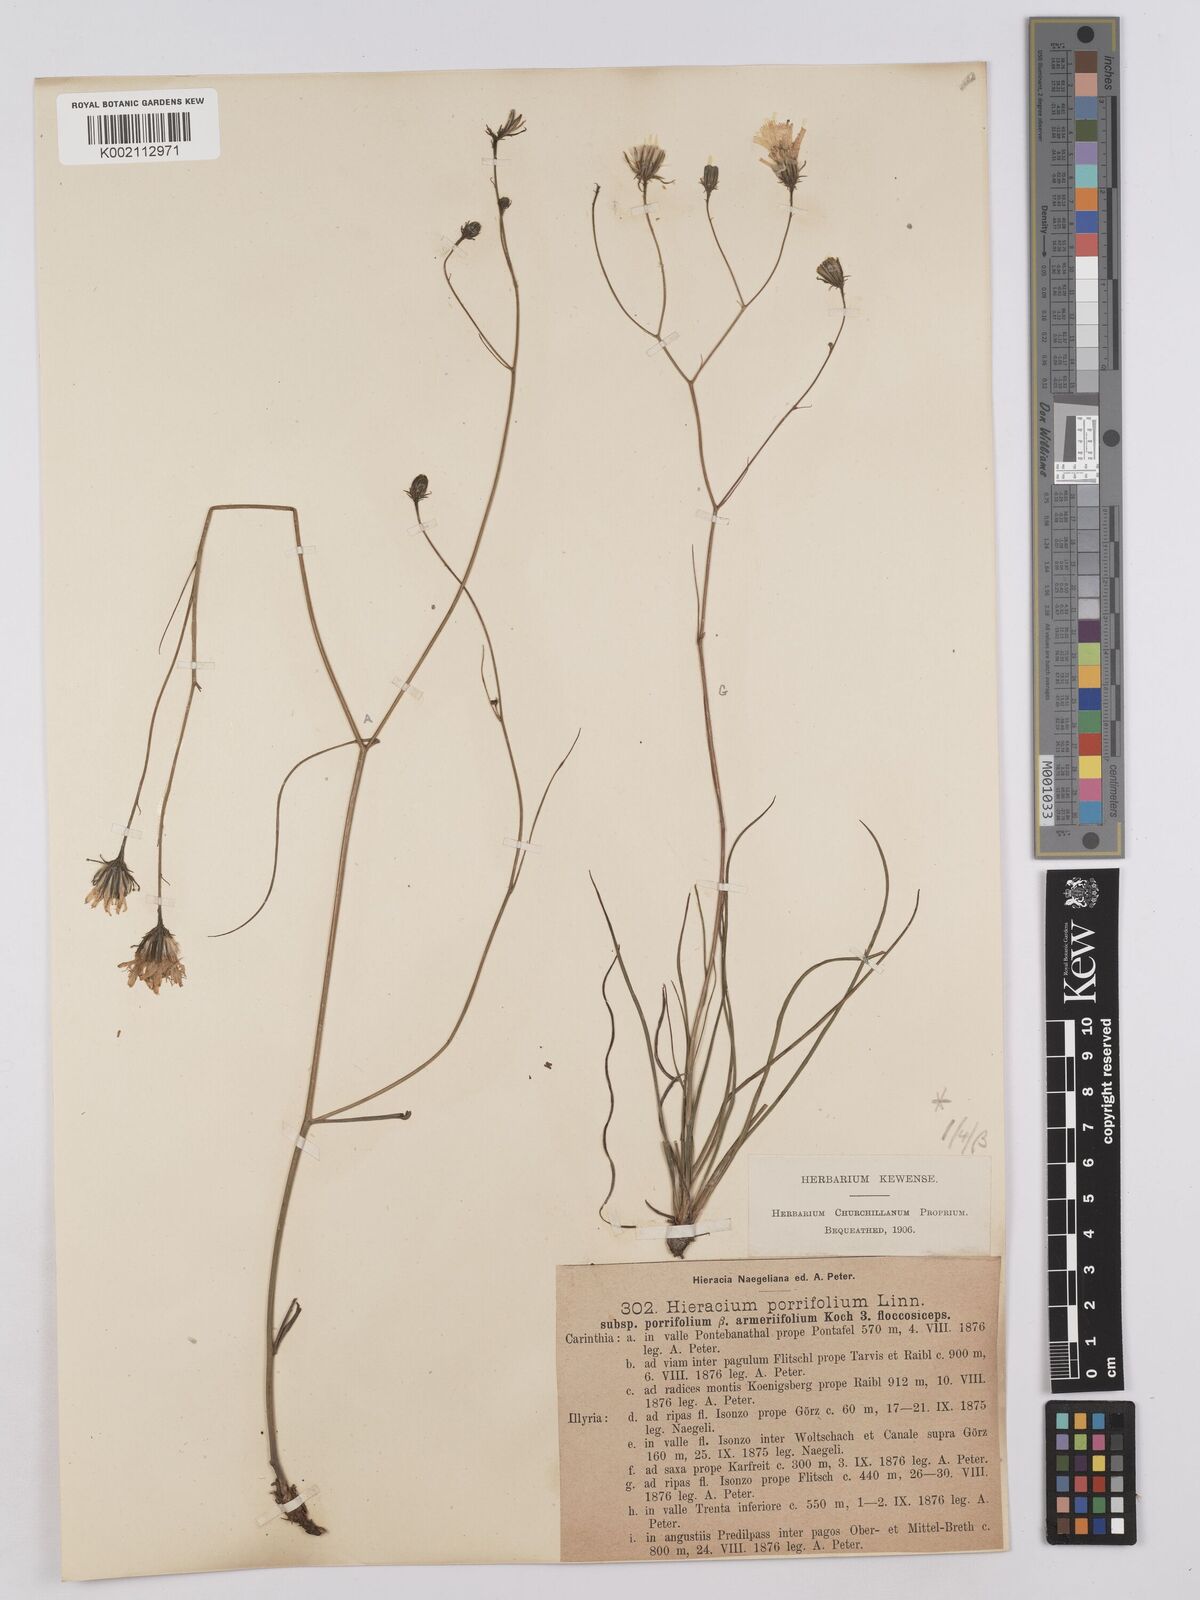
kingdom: Plantae
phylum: Tracheophyta
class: Magnoliopsida
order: Asterales
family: Asteraceae
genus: Hieracium
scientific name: Hieracium porrifolium
